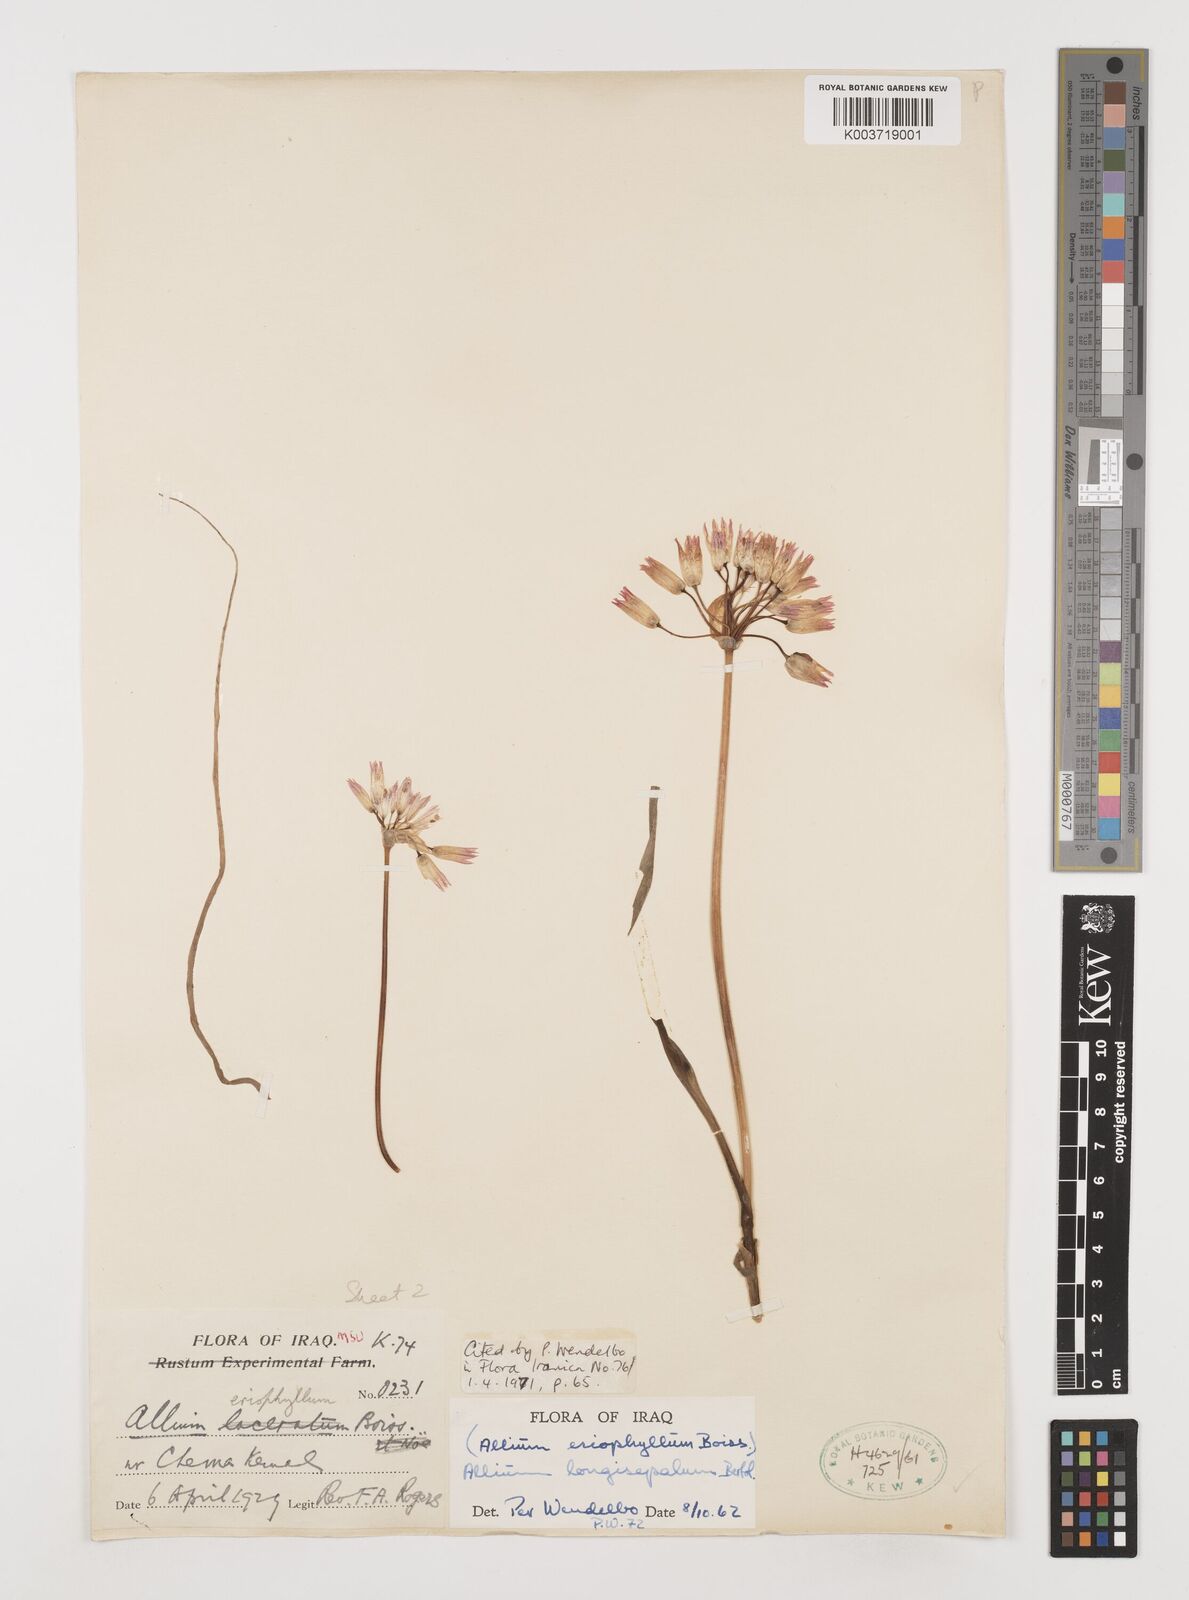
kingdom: Plantae
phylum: Tracheophyta
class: Liliopsida
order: Asparagales
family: Amaryllidaceae
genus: Allium
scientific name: Allium longisepalum
